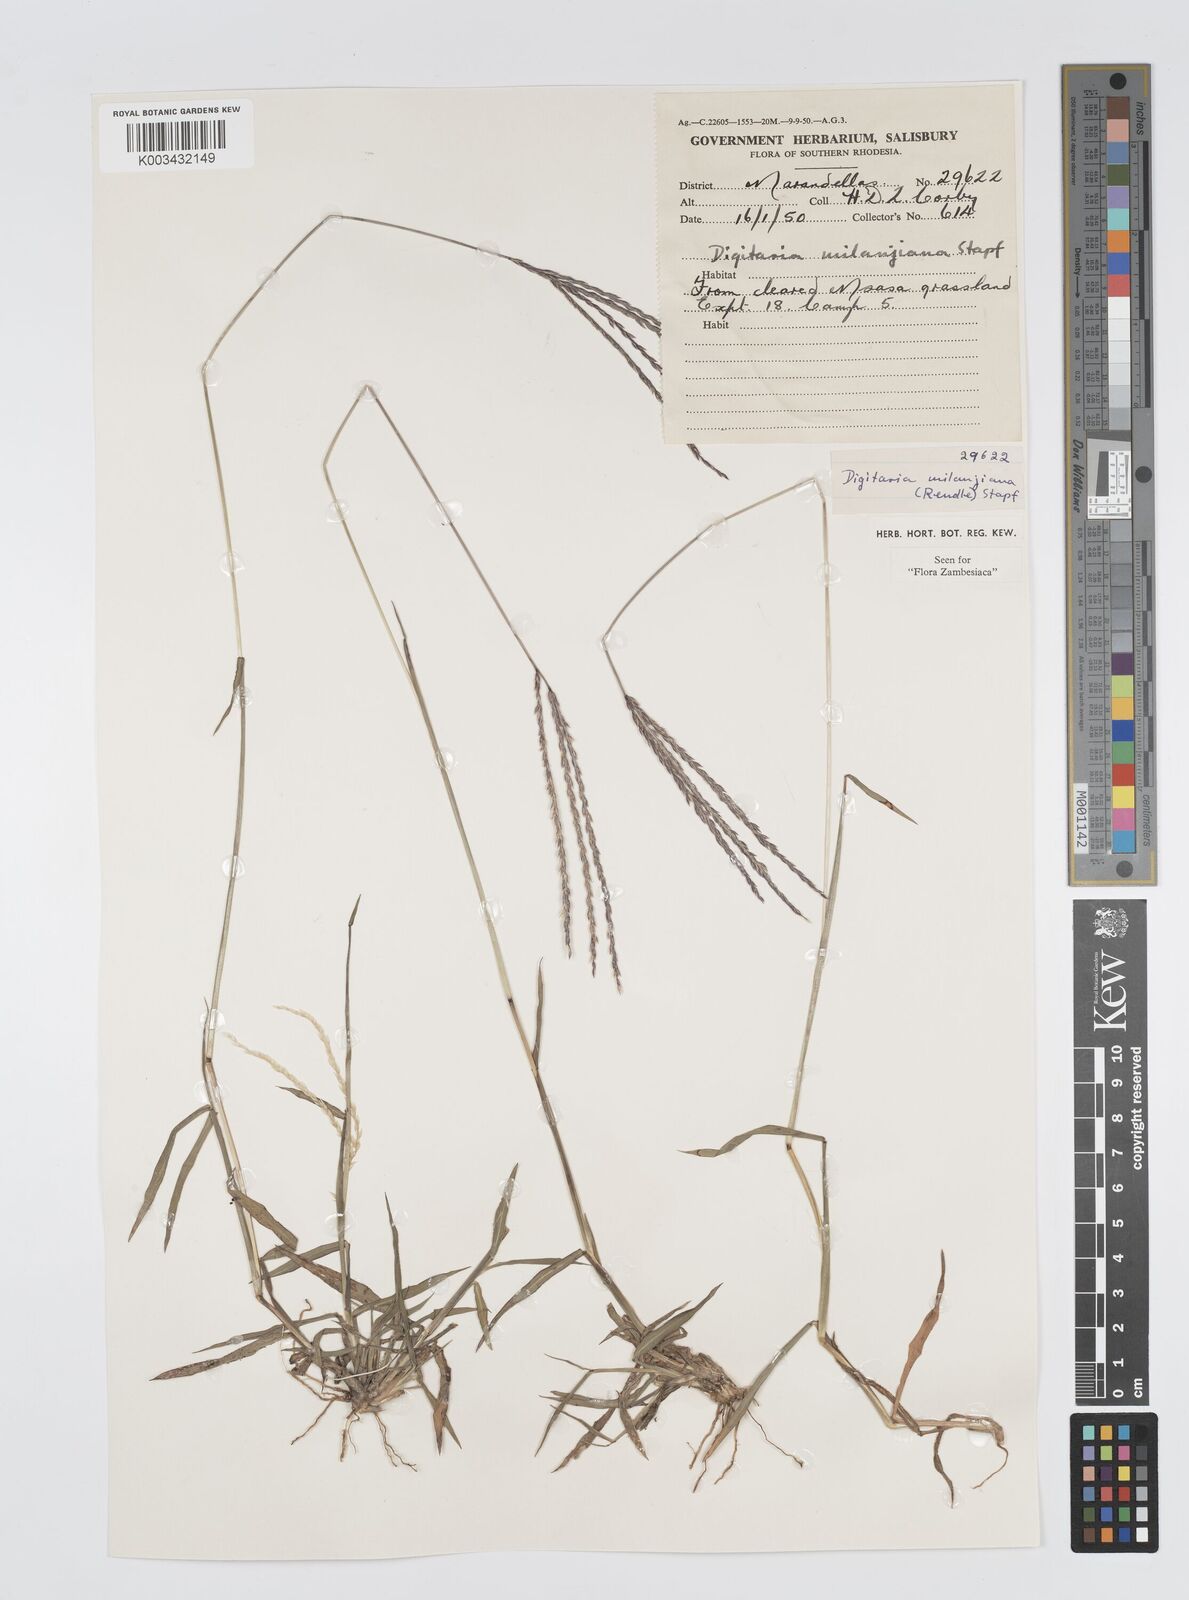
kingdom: Plantae
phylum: Tracheophyta
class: Liliopsida
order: Poales
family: Poaceae
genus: Digitaria
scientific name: Digitaria milanjiana
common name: Madagascar crabgrass
